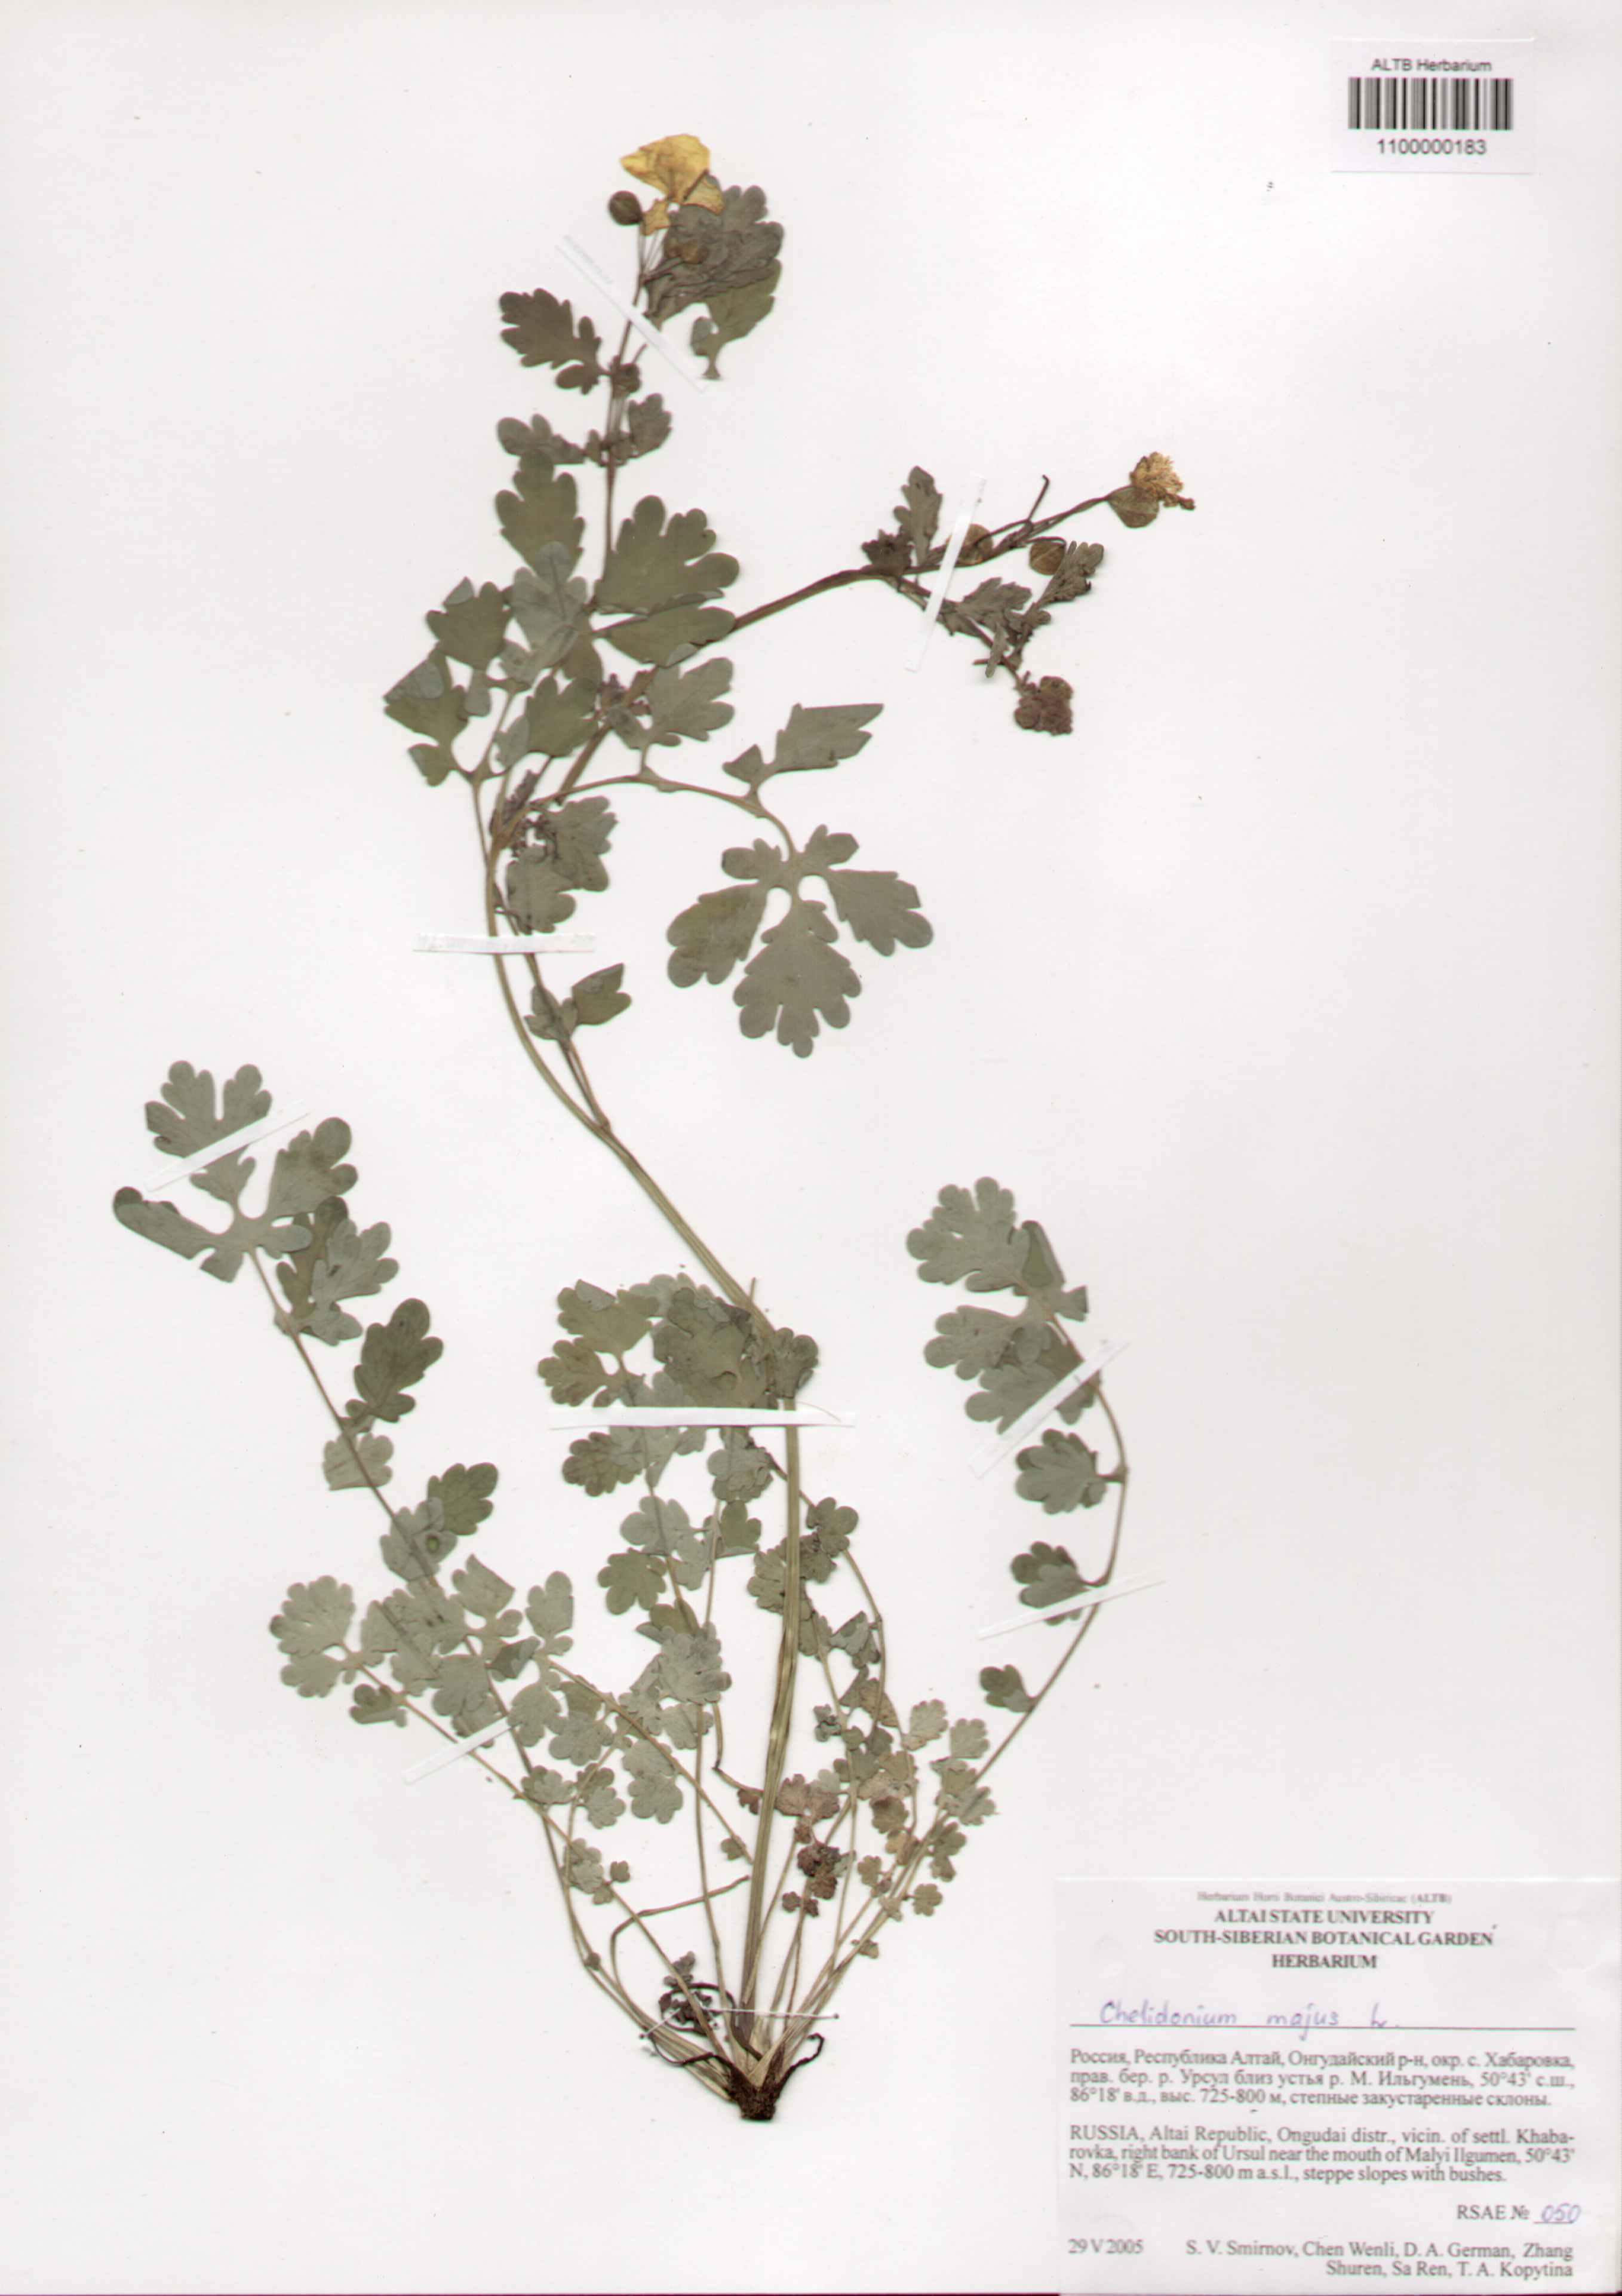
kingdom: Plantae
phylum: Tracheophyta
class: Magnoliopsida
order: Ranunculales
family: Papaveraceae
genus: Chelidonium
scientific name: Chelidonium majus
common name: Greater celandine
